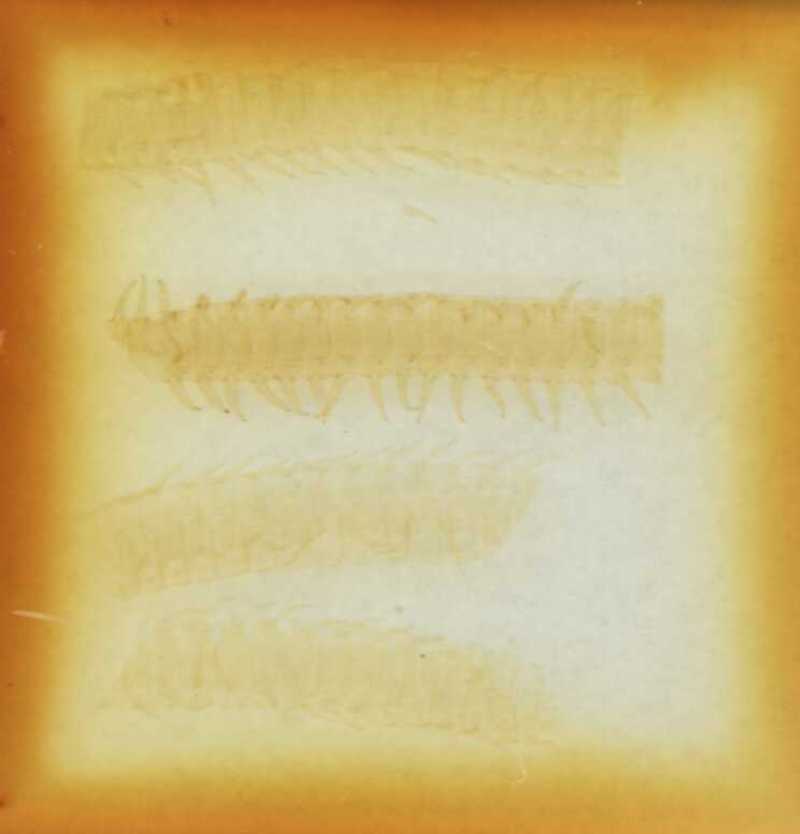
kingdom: Animalia
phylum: Arthropoda
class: Chilopoda
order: Geophilomorpha
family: Geophilidae
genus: Tweediphilus
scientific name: Tweediphilus malaccanus
